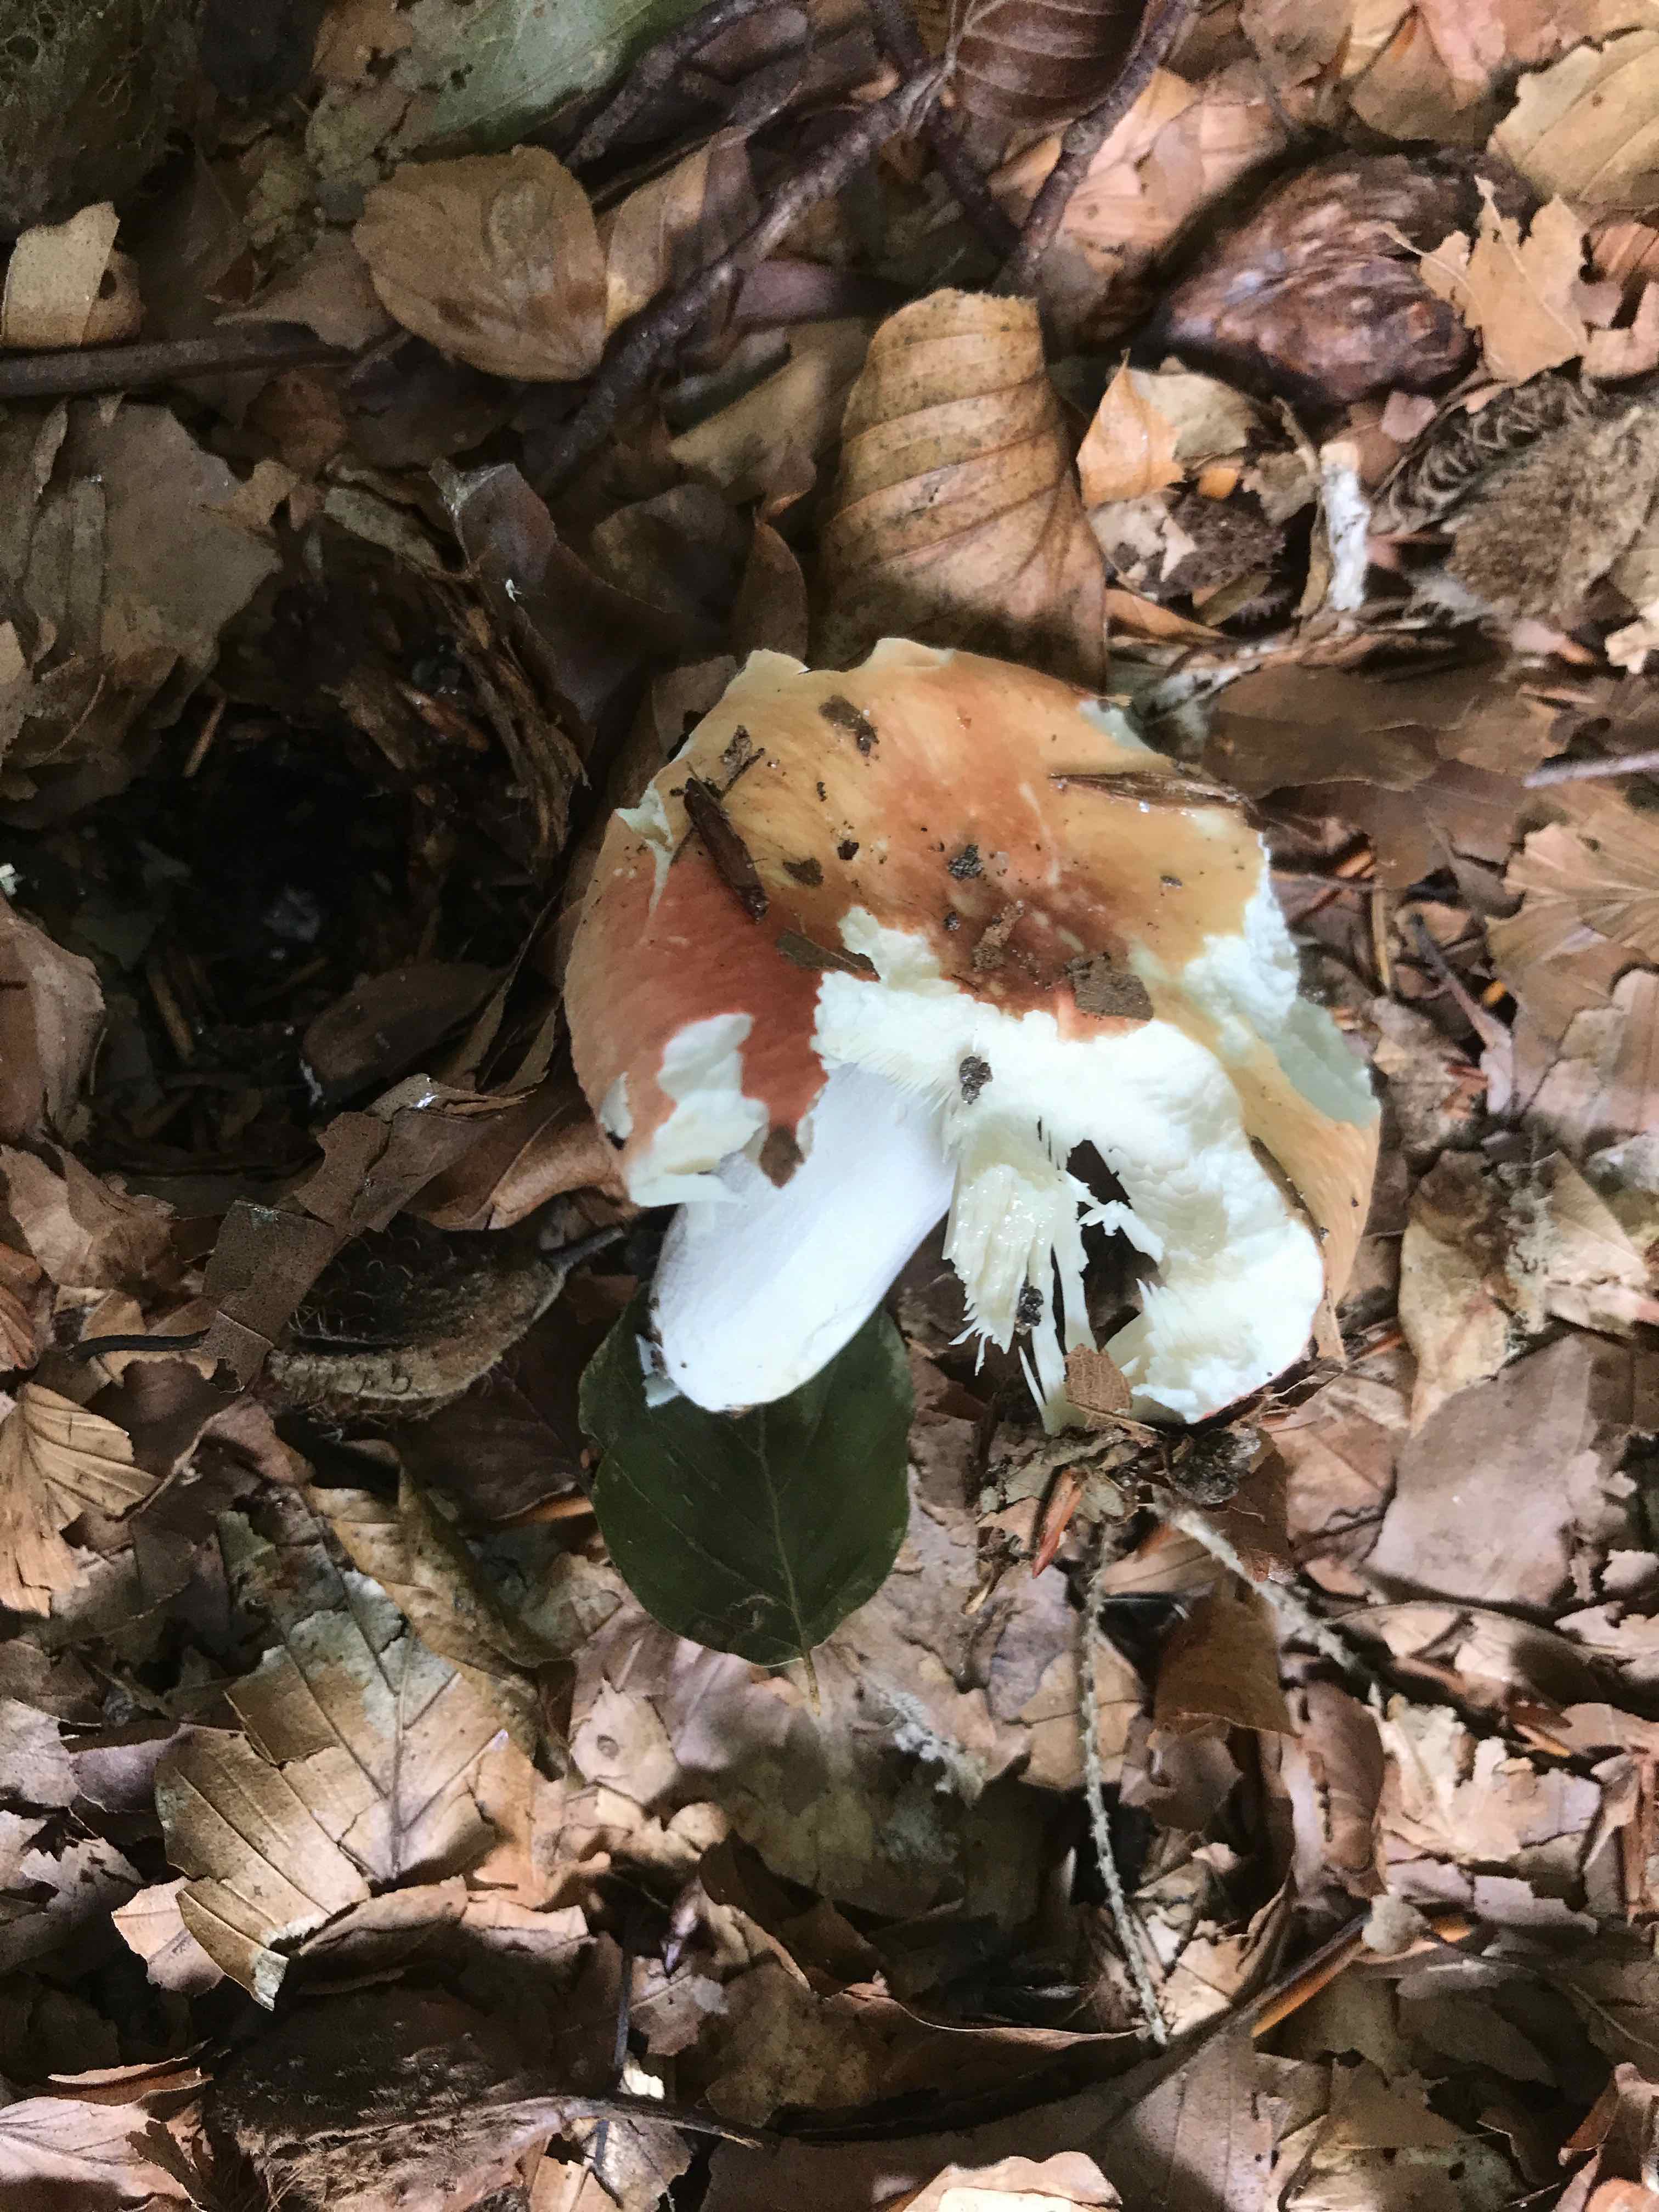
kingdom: Fungi
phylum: Basidiomycota
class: Agaricomycetes
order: Russulales
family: Russulaceae
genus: Russula
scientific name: Russula rosea
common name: fastkødet skørhat
